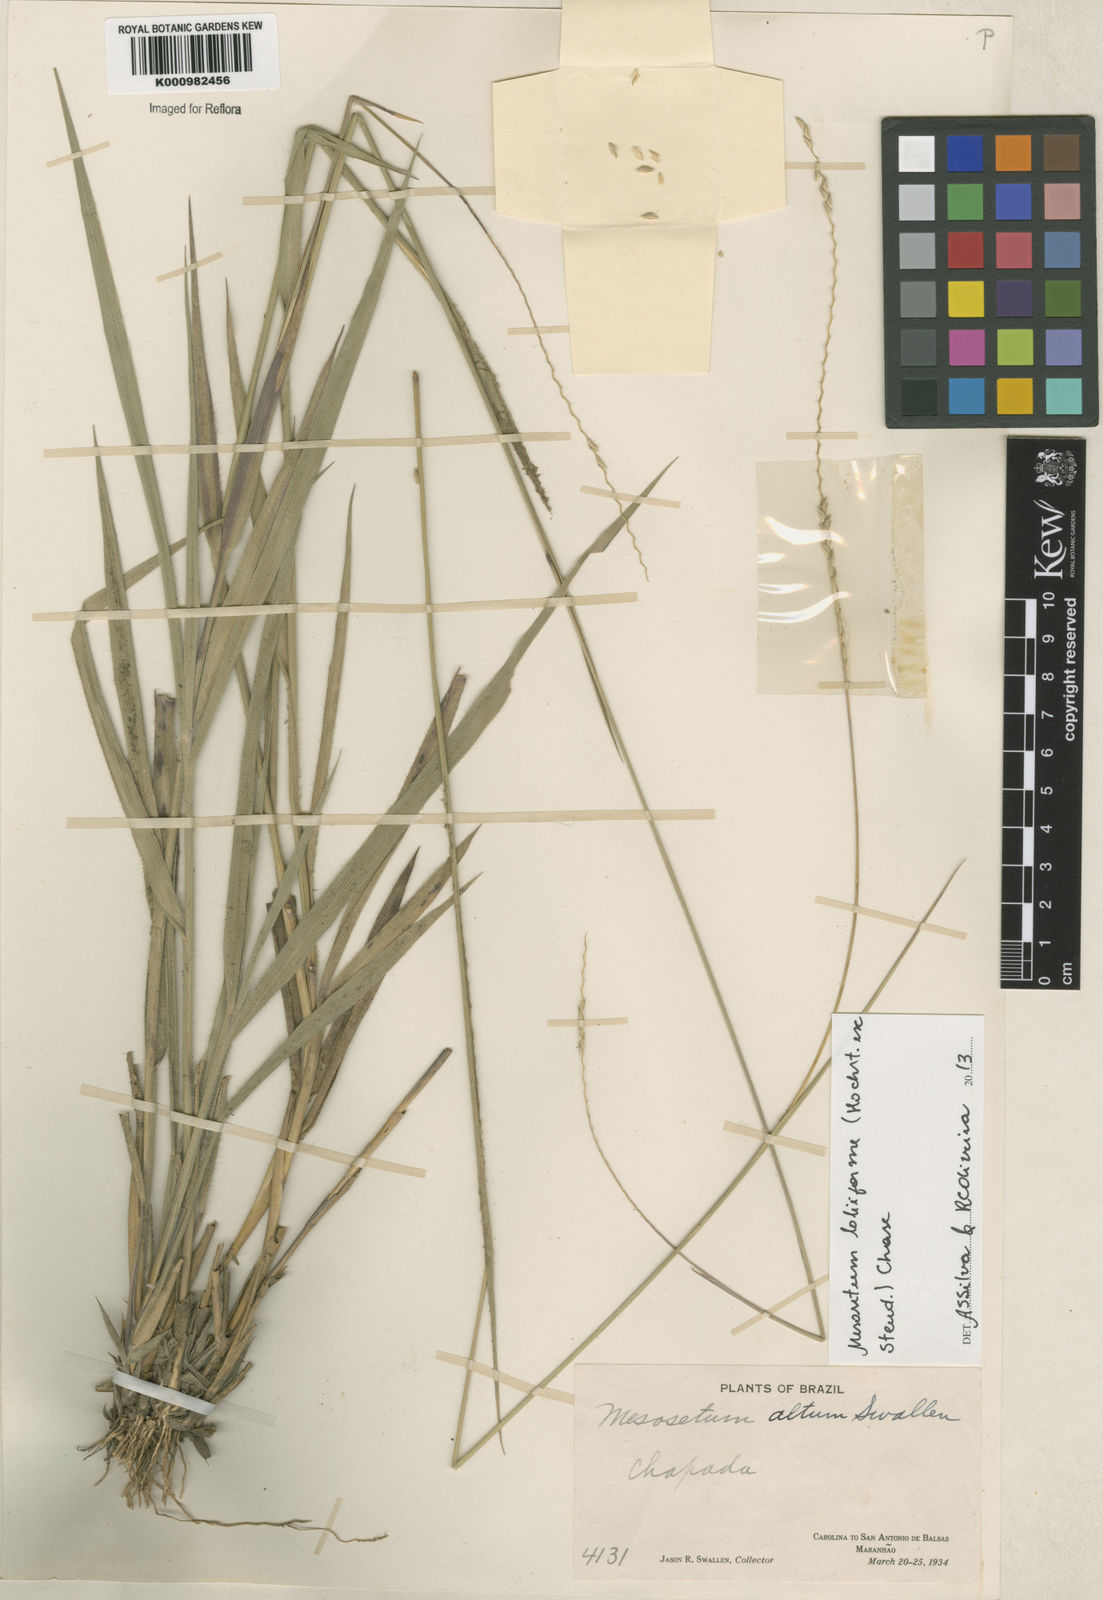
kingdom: Plantae
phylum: Tracheophyta
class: Liliopsida
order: Poales
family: Poaceae
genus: Mesosetum
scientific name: Mesosetum
